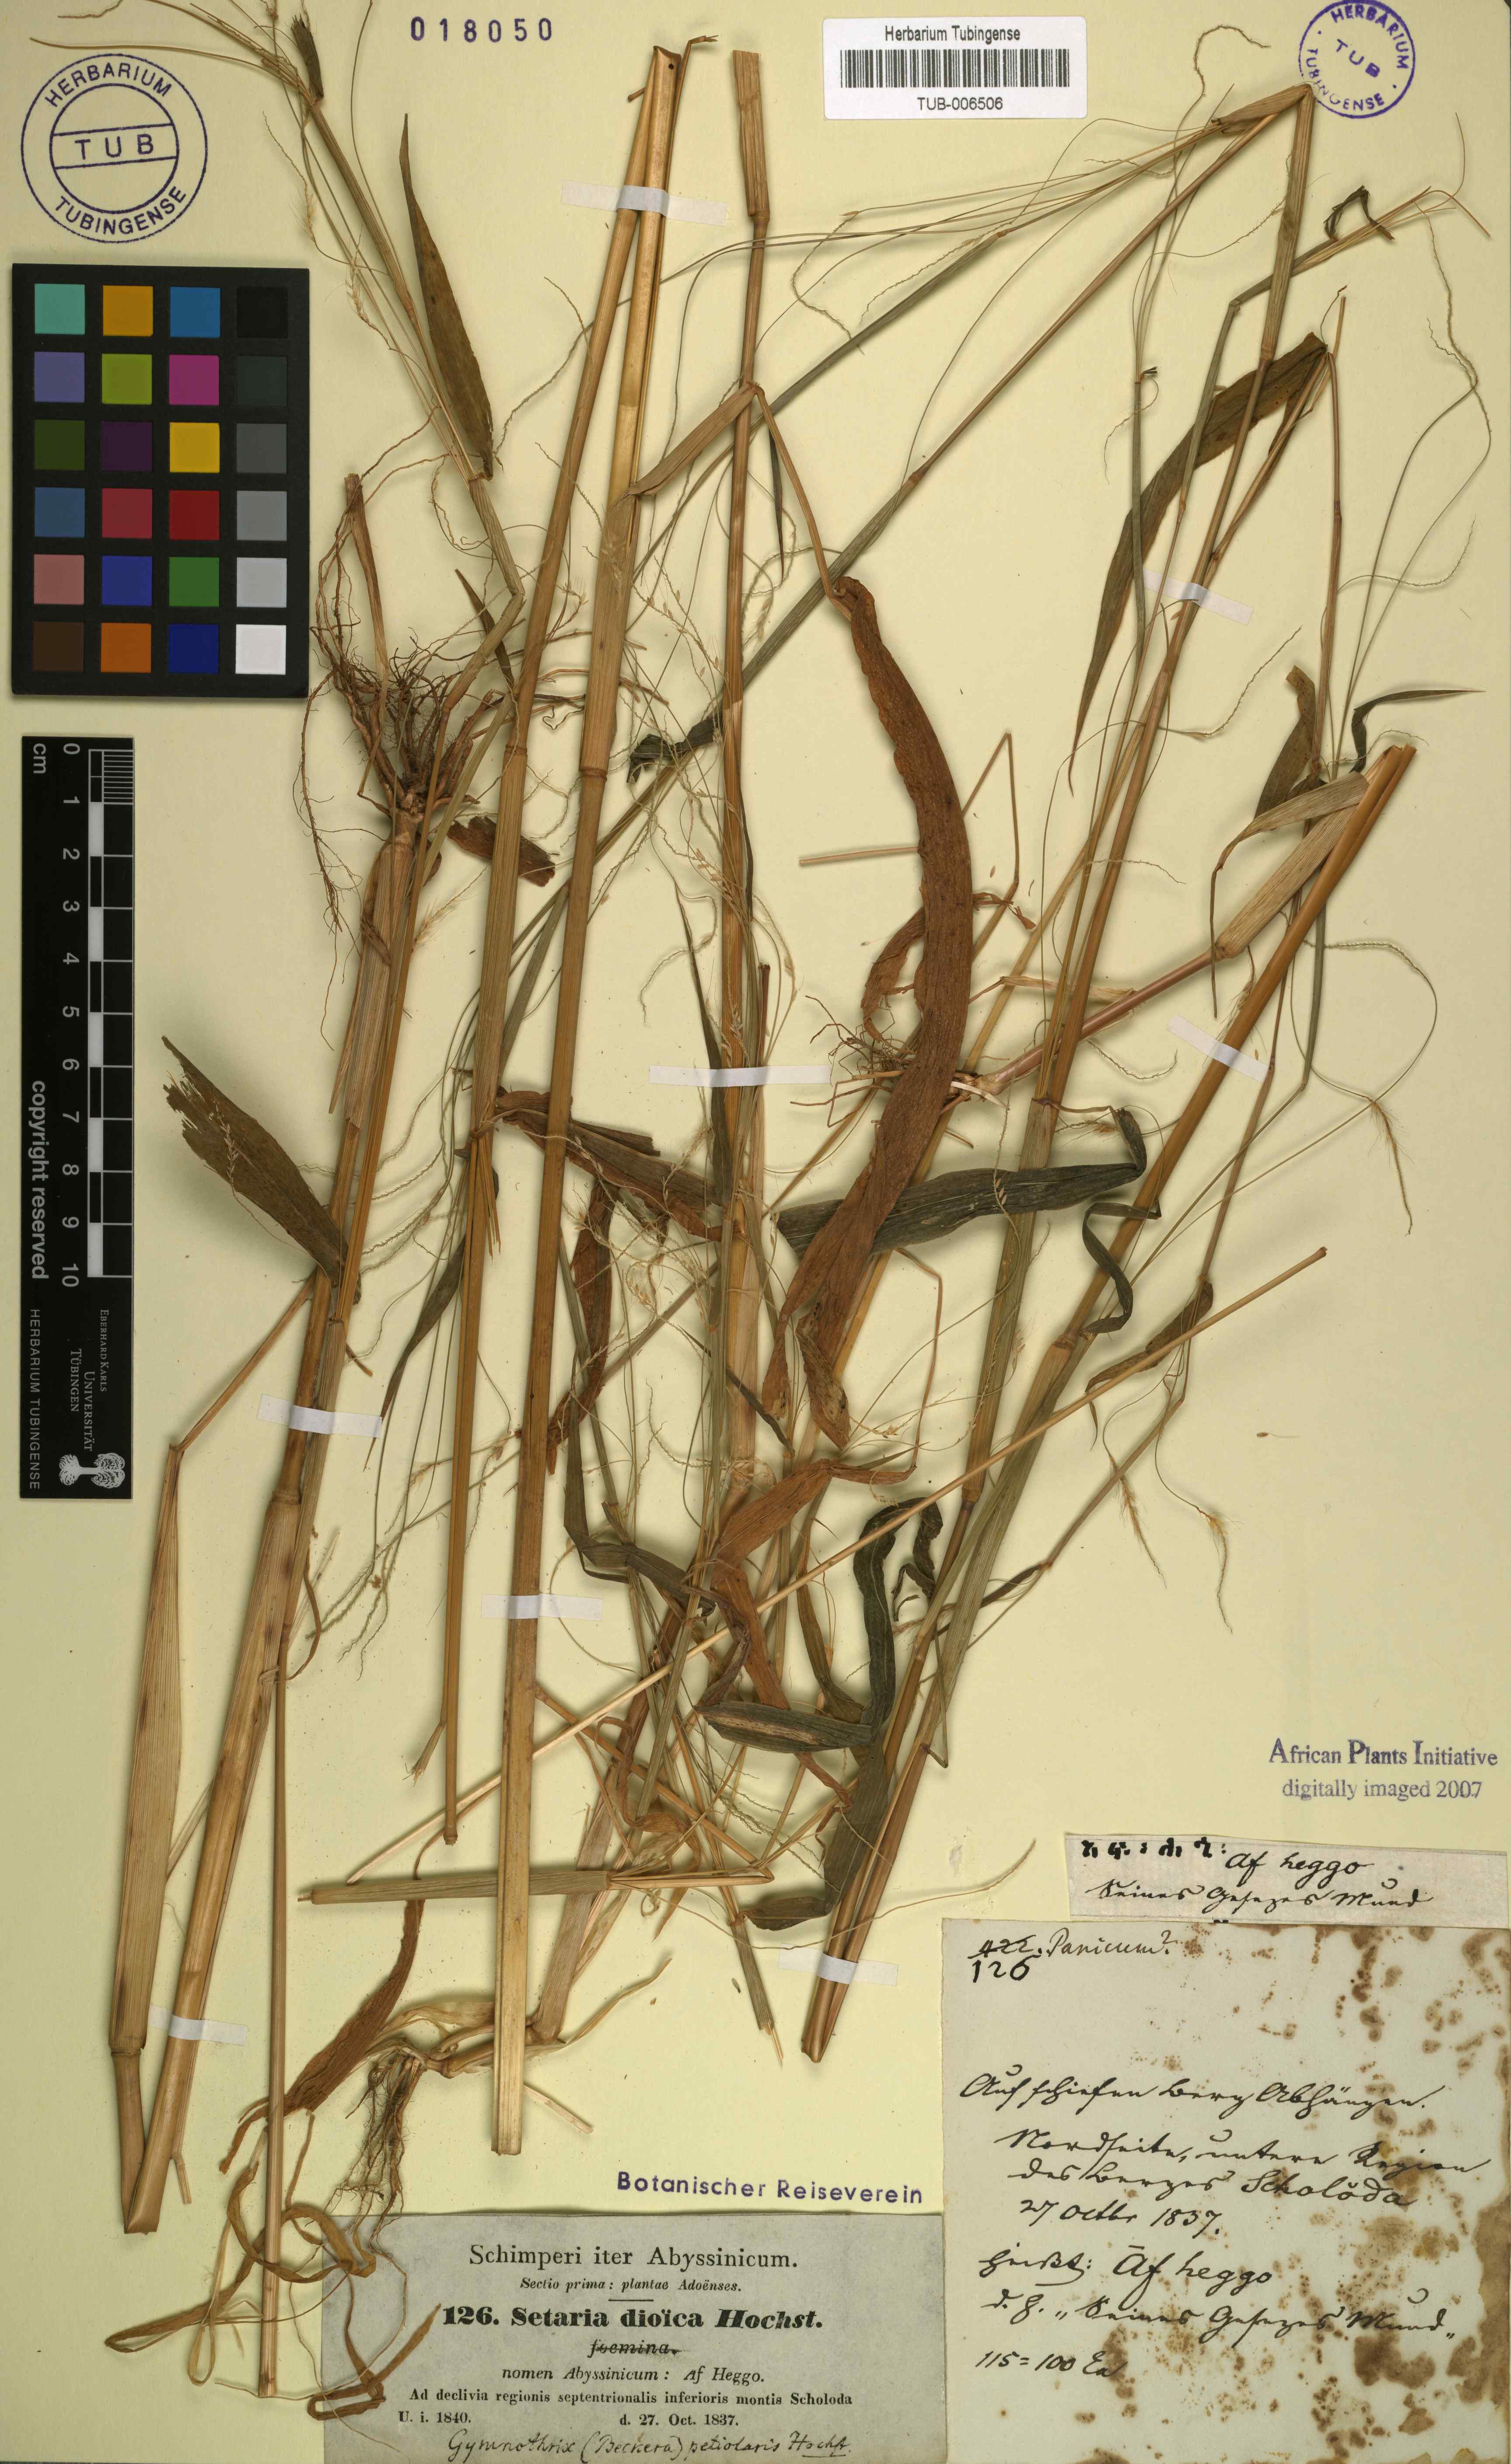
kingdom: Plantae
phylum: Tracheophyta
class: Liliopsida
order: Poales
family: Poaceae
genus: Cenchrus
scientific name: Cenchrus petiolaris
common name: Grass
